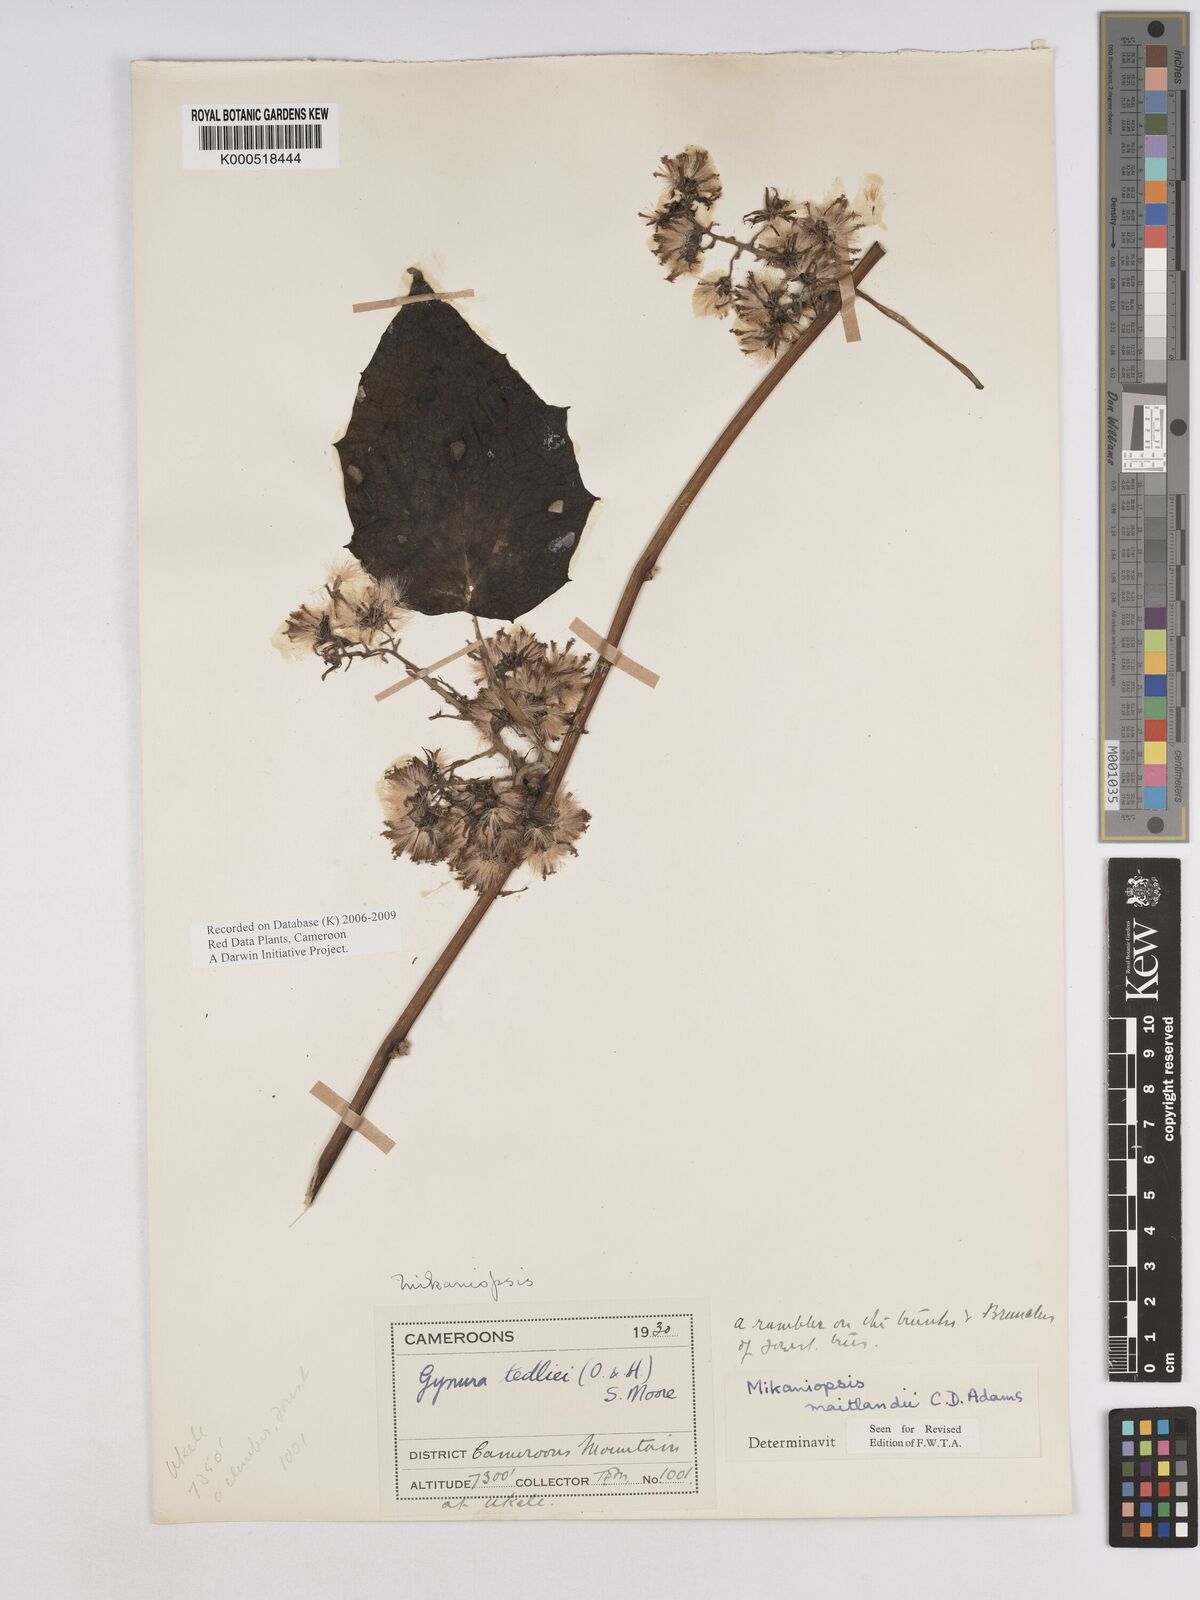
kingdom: Plantae
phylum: Tracheophyta
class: Magnoliopsida
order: Asterales
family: Asteraceae
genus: Mikaniopsis
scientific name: Mikaniopsis maitlandii
